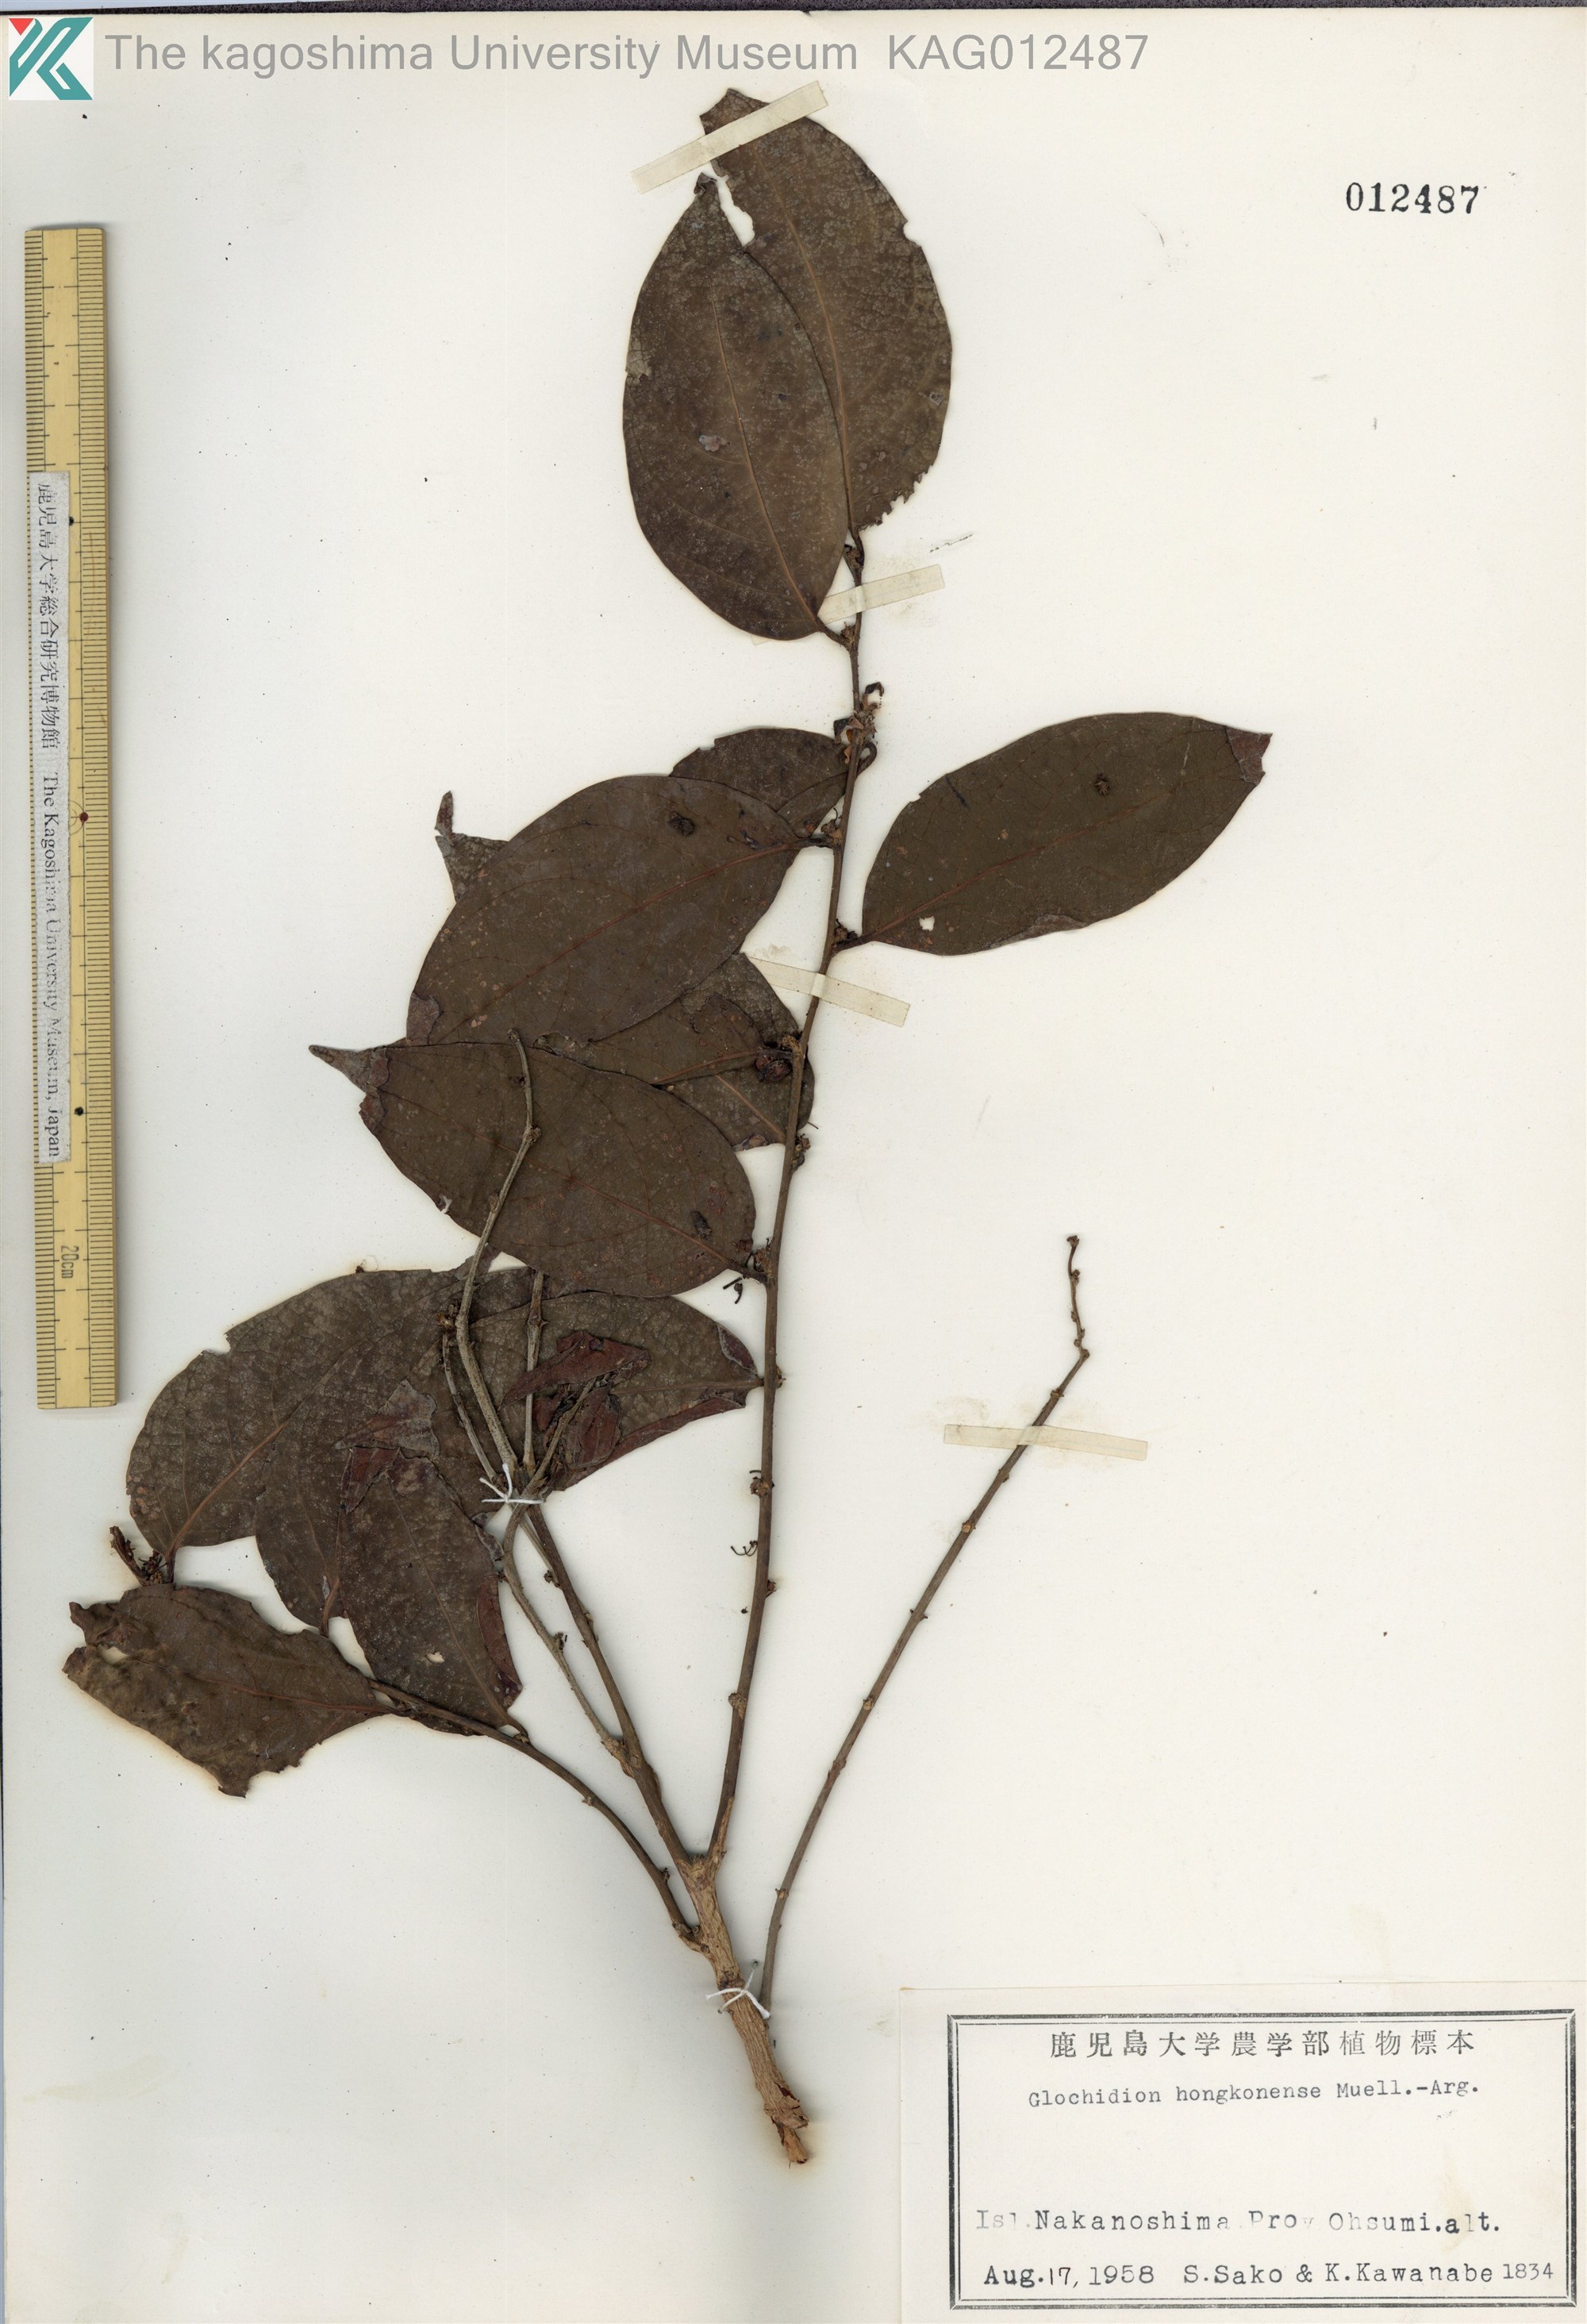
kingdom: Plantae
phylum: Tracheophyta
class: Magnoliopsida
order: Malpighiales
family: Phyllanthaceae
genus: Glochidion
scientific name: Glochidion zeylanicum
